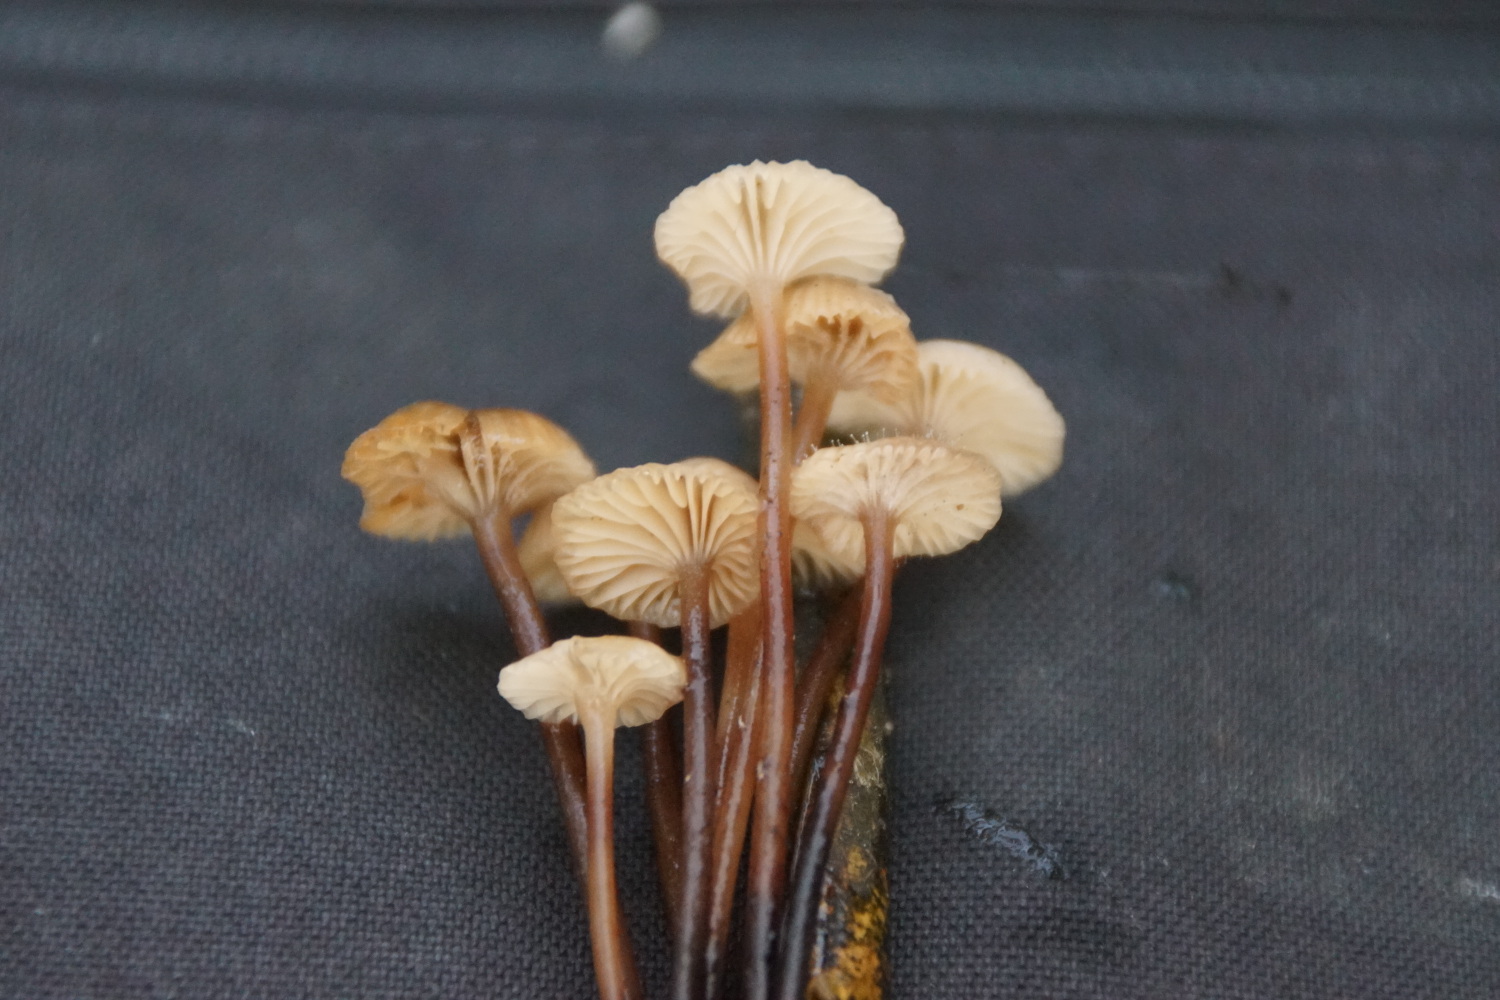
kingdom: Fungi
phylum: Basidiomycota
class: Agaricomycetes
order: Agaricales
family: Mycenaceae
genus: Mycena
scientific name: Mycena belliae
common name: tagrørs-huesvamp
